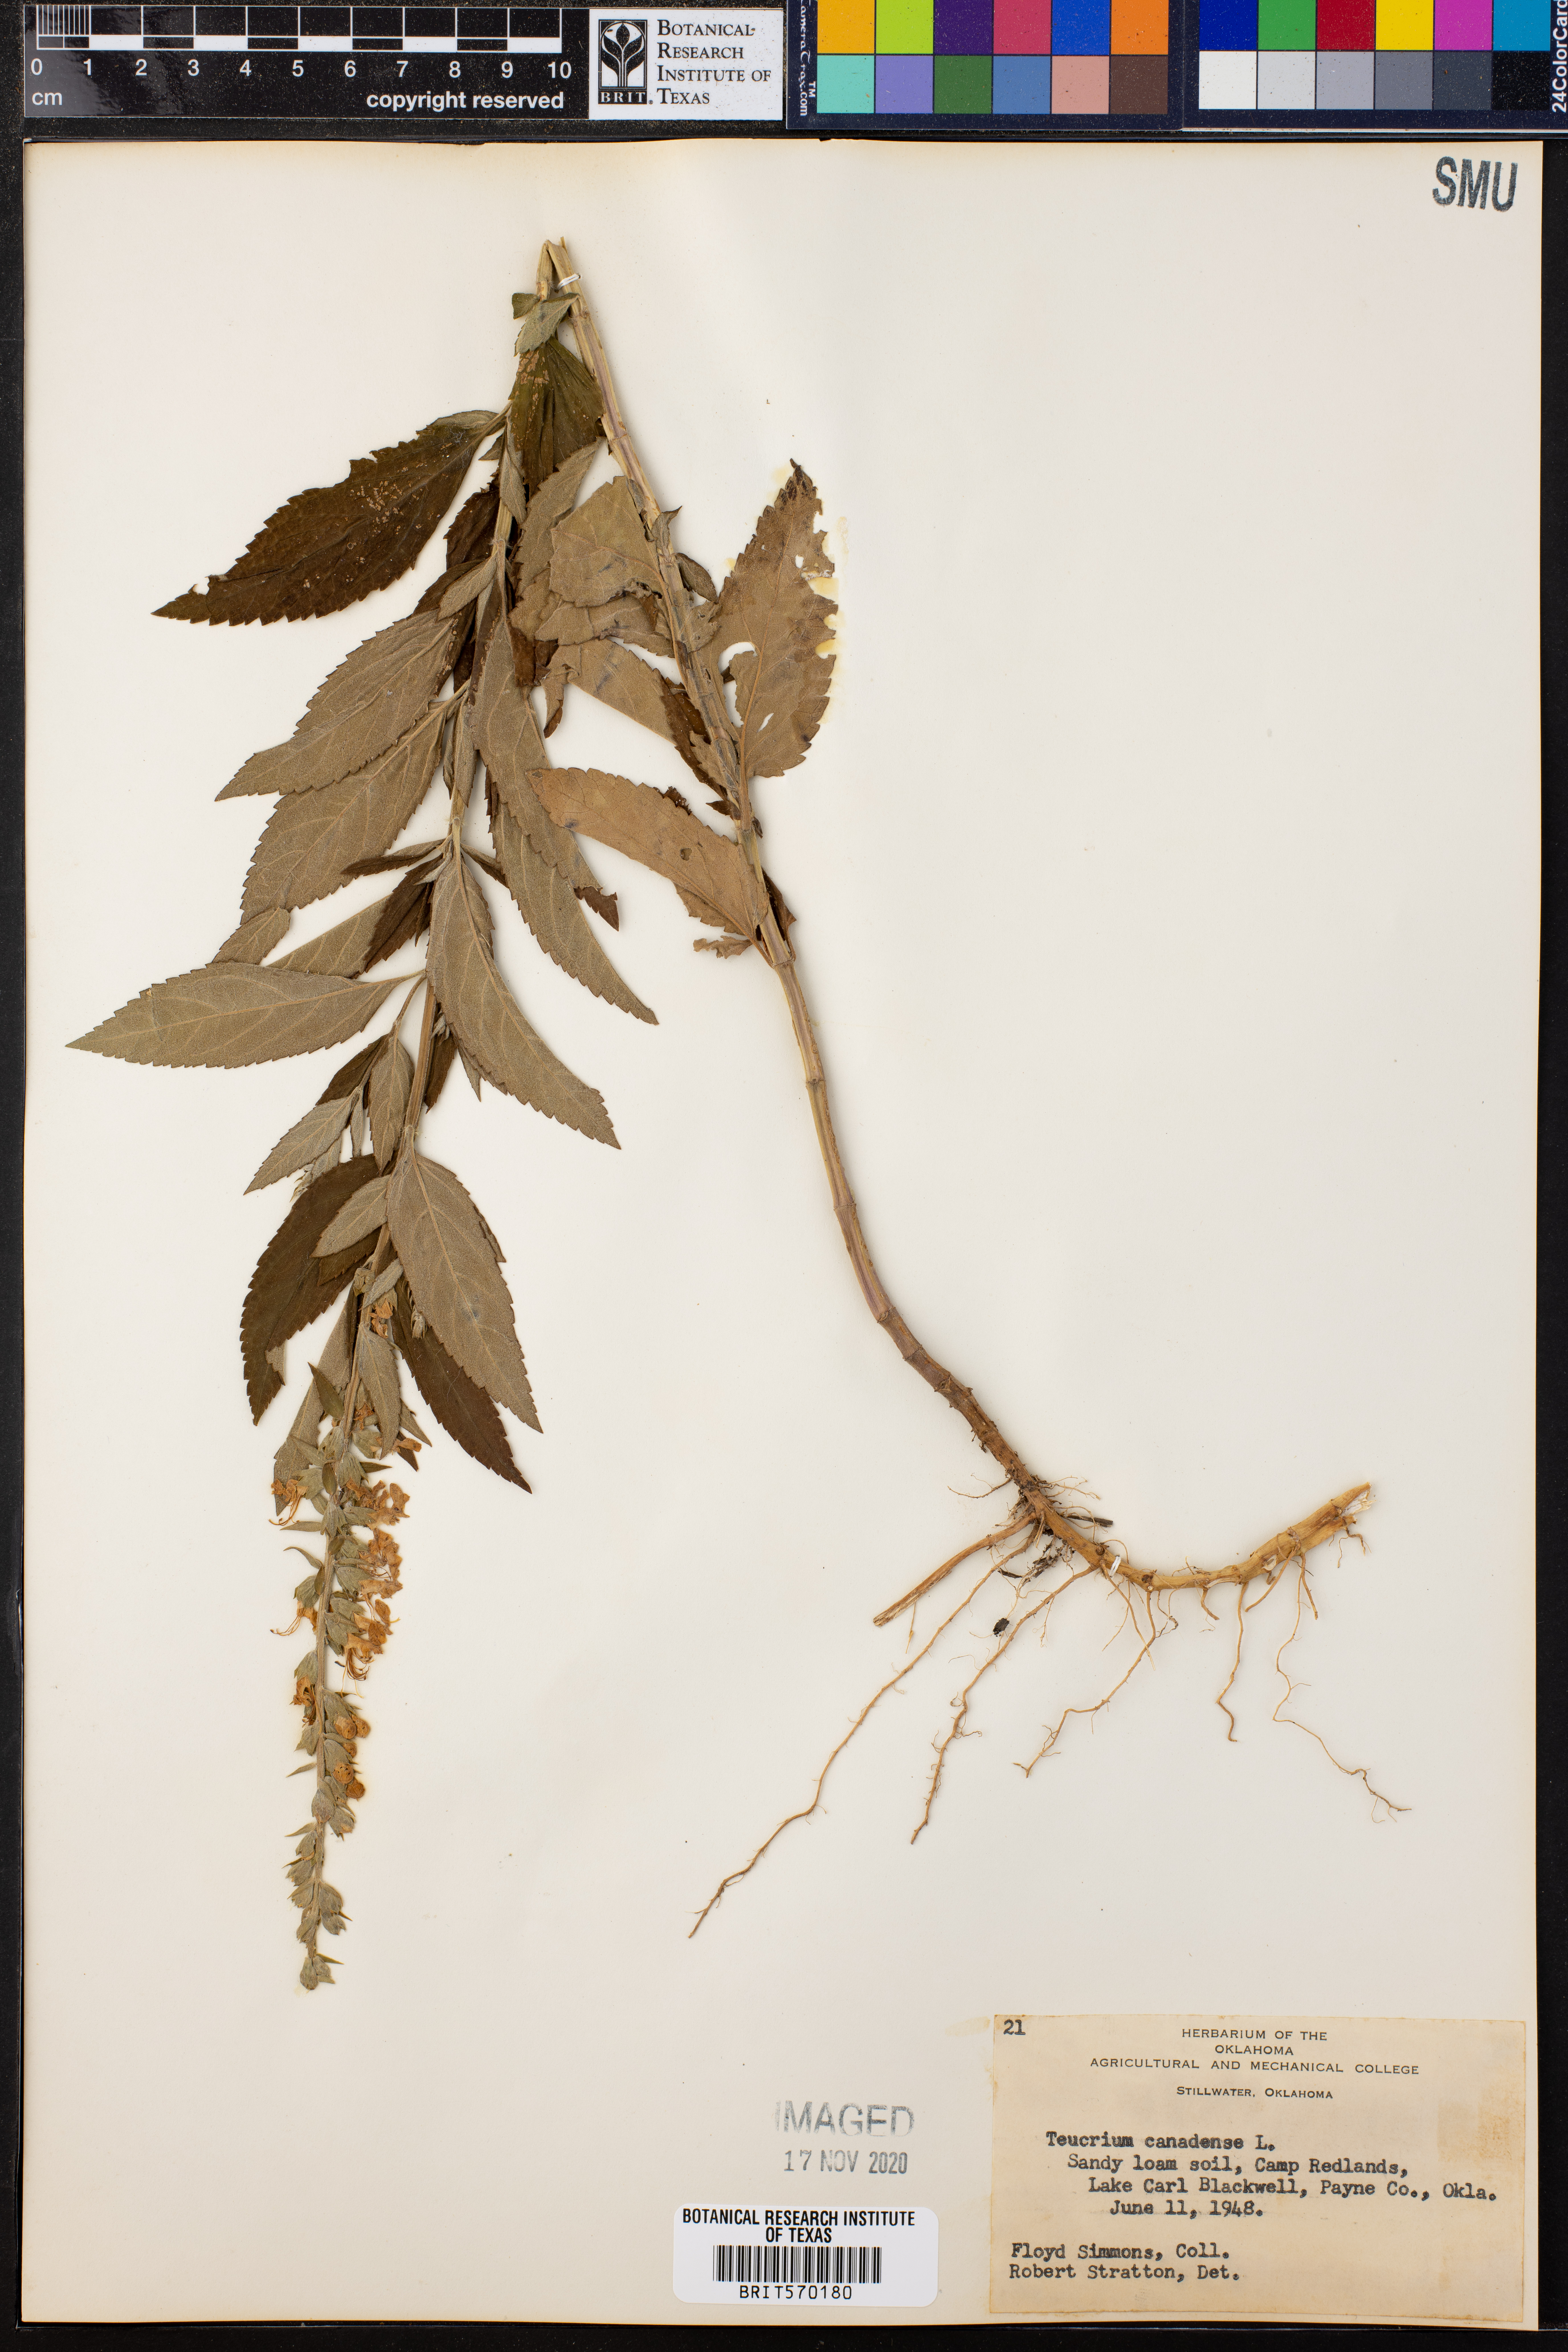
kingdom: Plantae
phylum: Tracheophyta
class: Magnoliopsida
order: Lamiales
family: Lamiaceae
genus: Teucrium
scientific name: Teucrium canadense
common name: American germander
